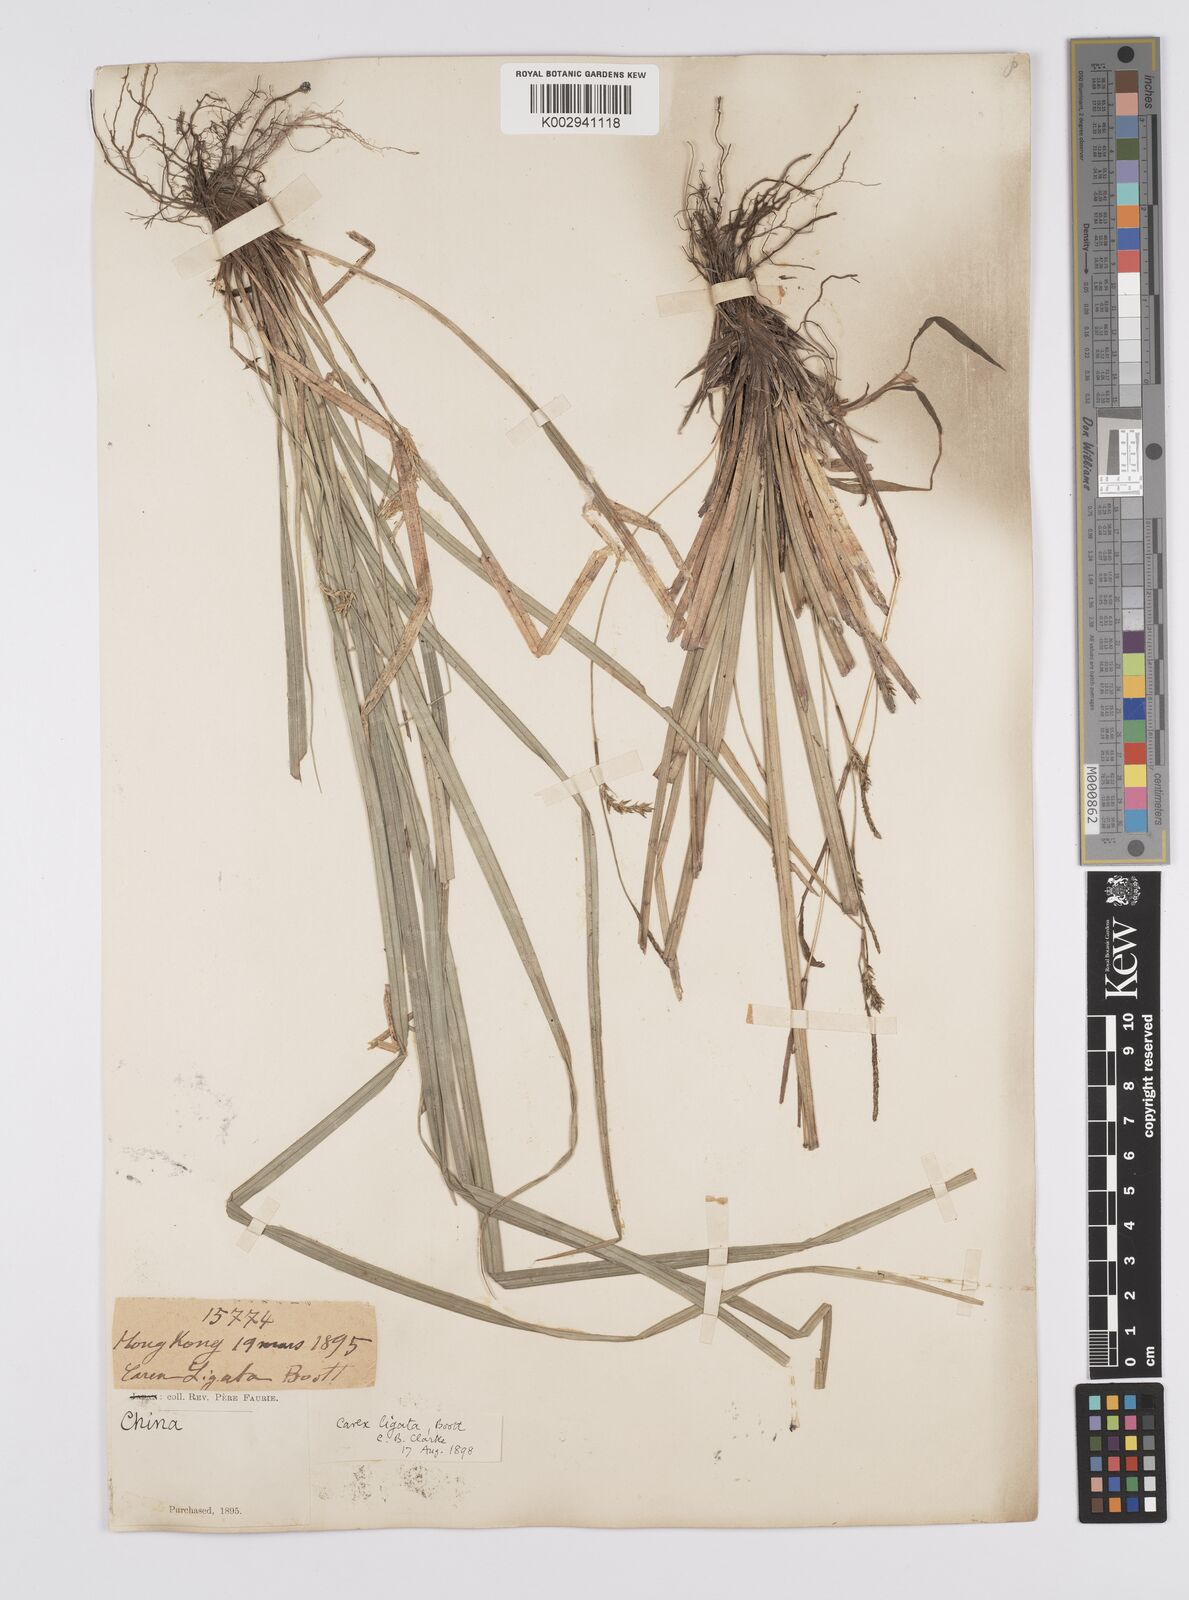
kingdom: Plantae
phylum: Tracheophyta
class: Liliopsida
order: Poales
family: Cyperaceae
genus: Carex
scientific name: Carex ligata
